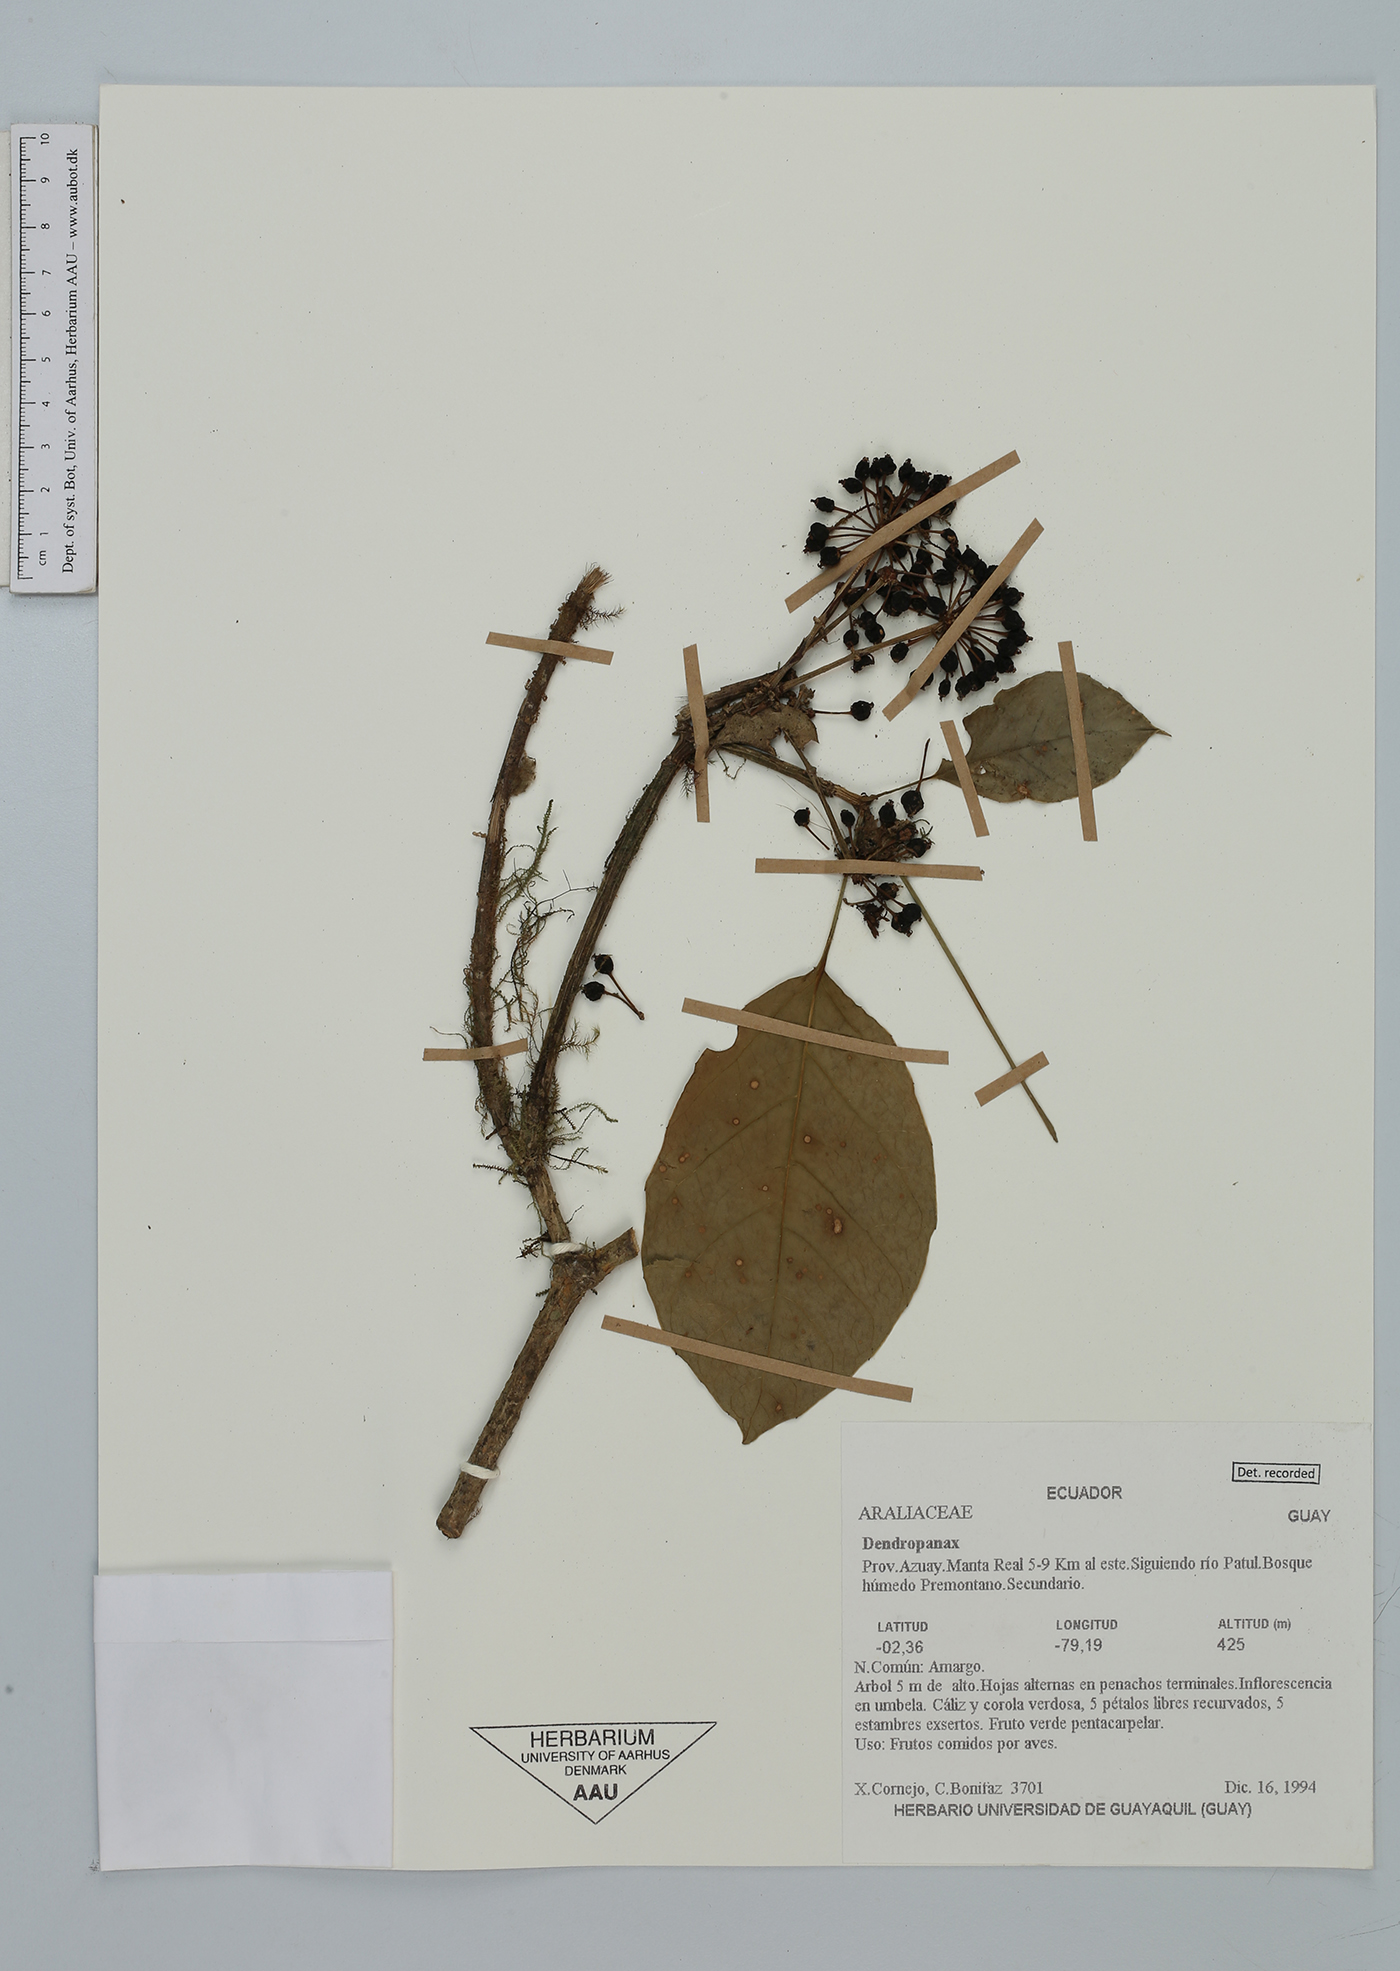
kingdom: Plantae
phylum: Tracheophyta
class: Magnoliopsida
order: Apiales
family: Araliaceae
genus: Dendropanax
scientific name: Dendropanax
